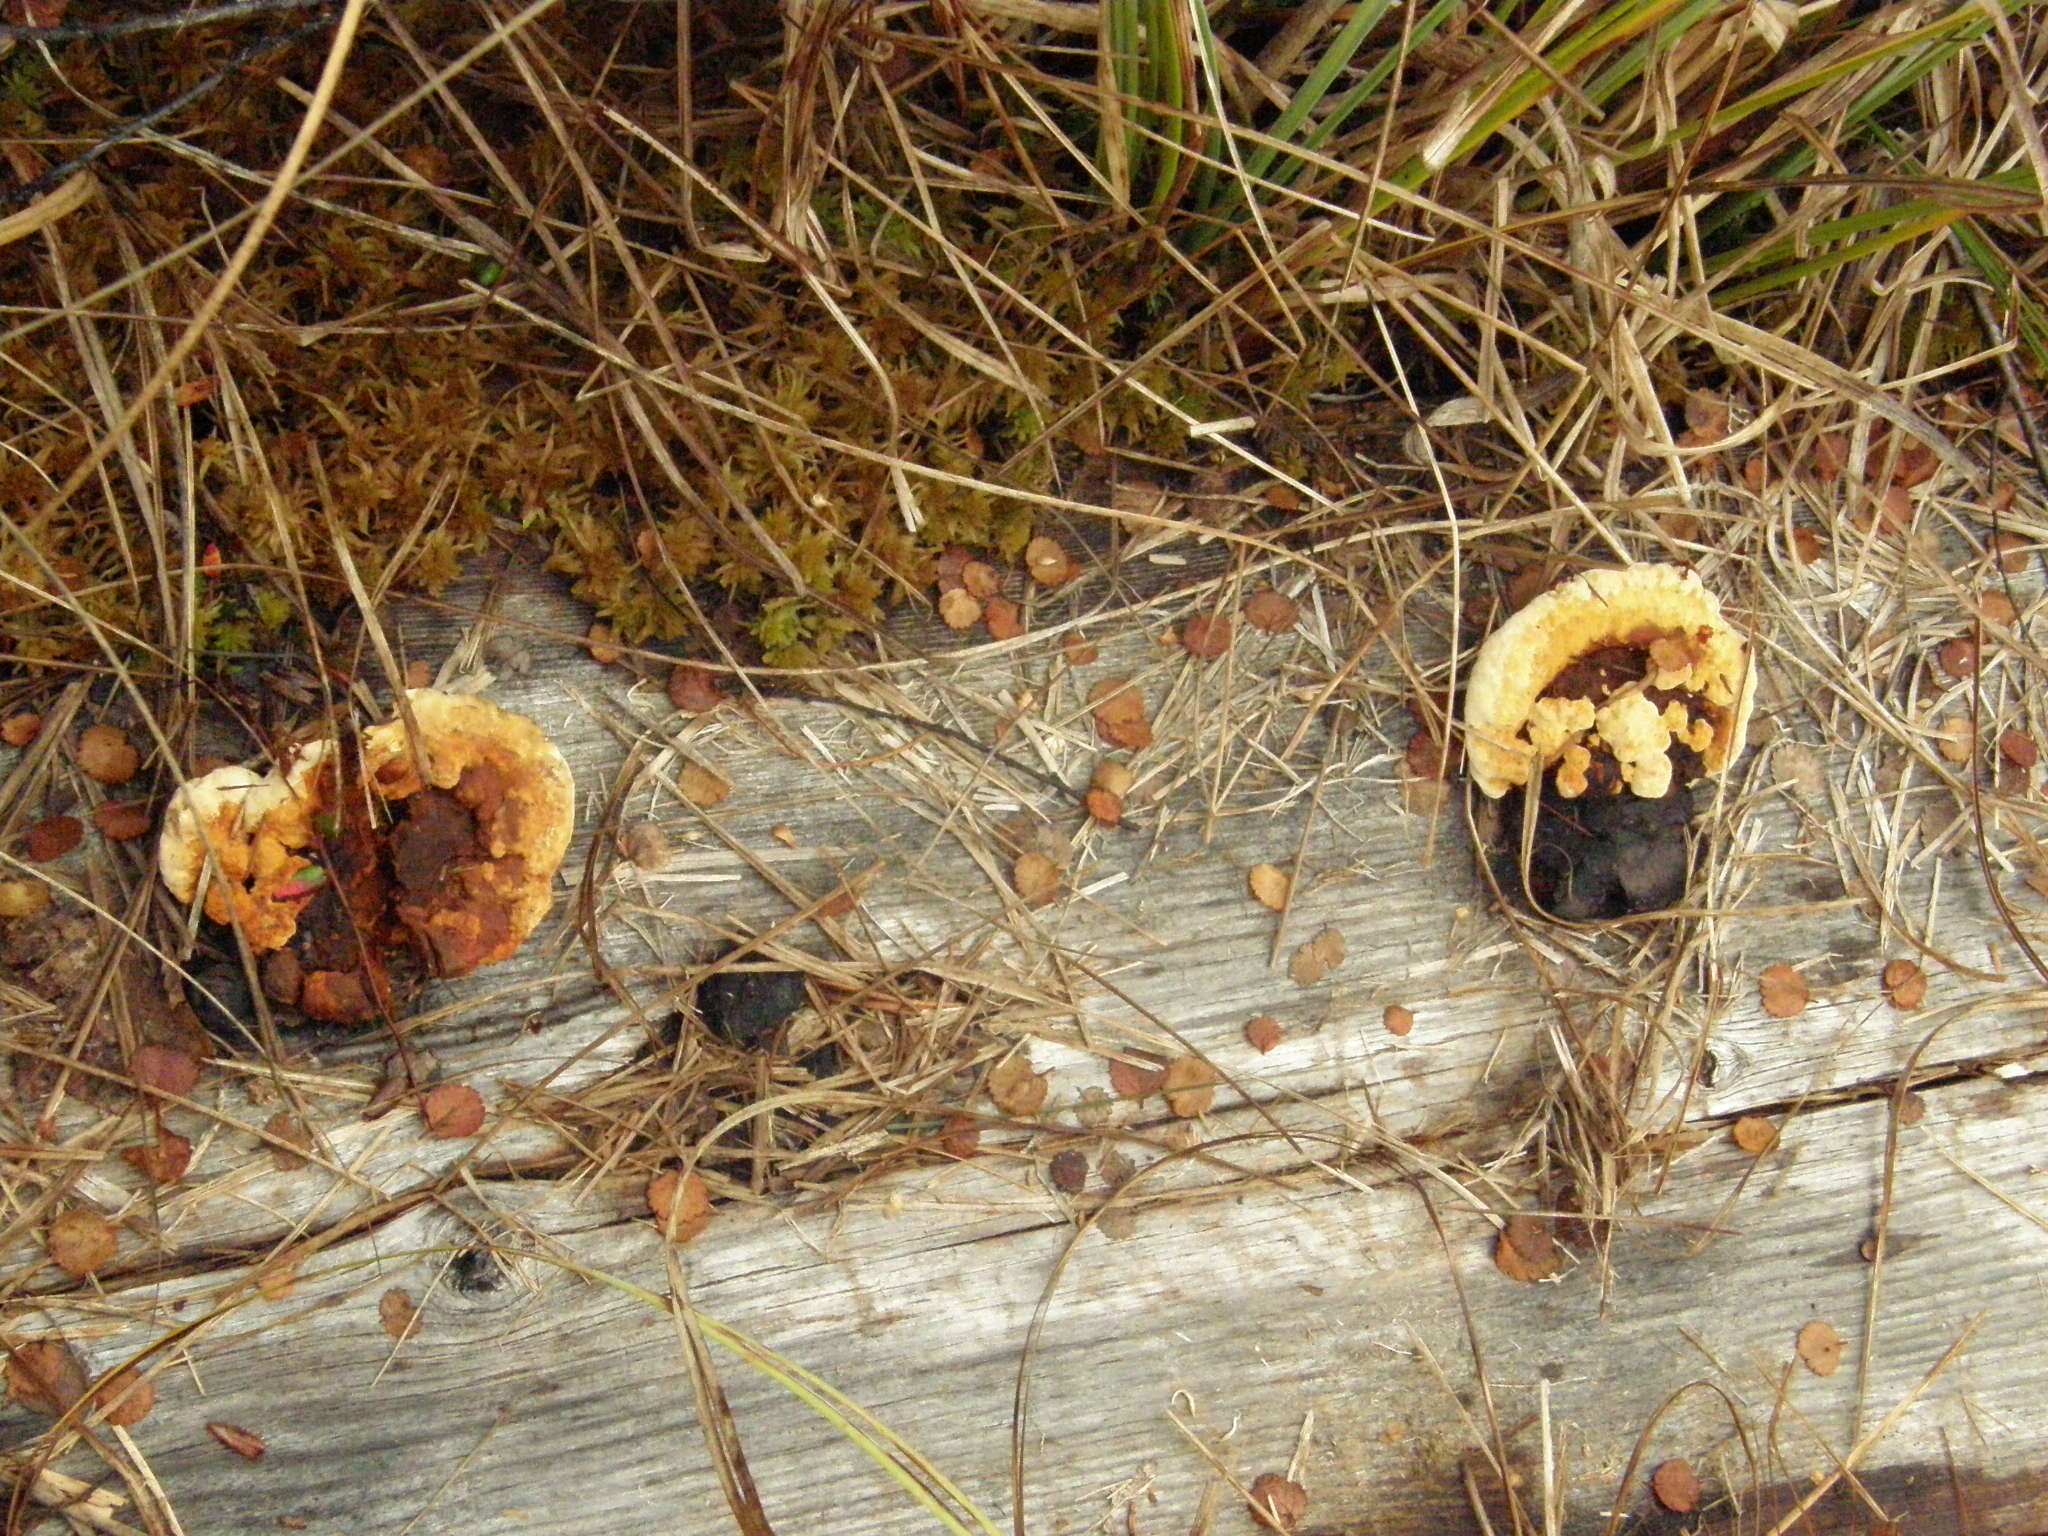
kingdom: Fungi
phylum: Basidiomycota
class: Agaricomycetes
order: Gloeophyllales
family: Gloeophyllaceae
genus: Gloeophyllum
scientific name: Gloeophyllum odoratum
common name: Anise mazegill
